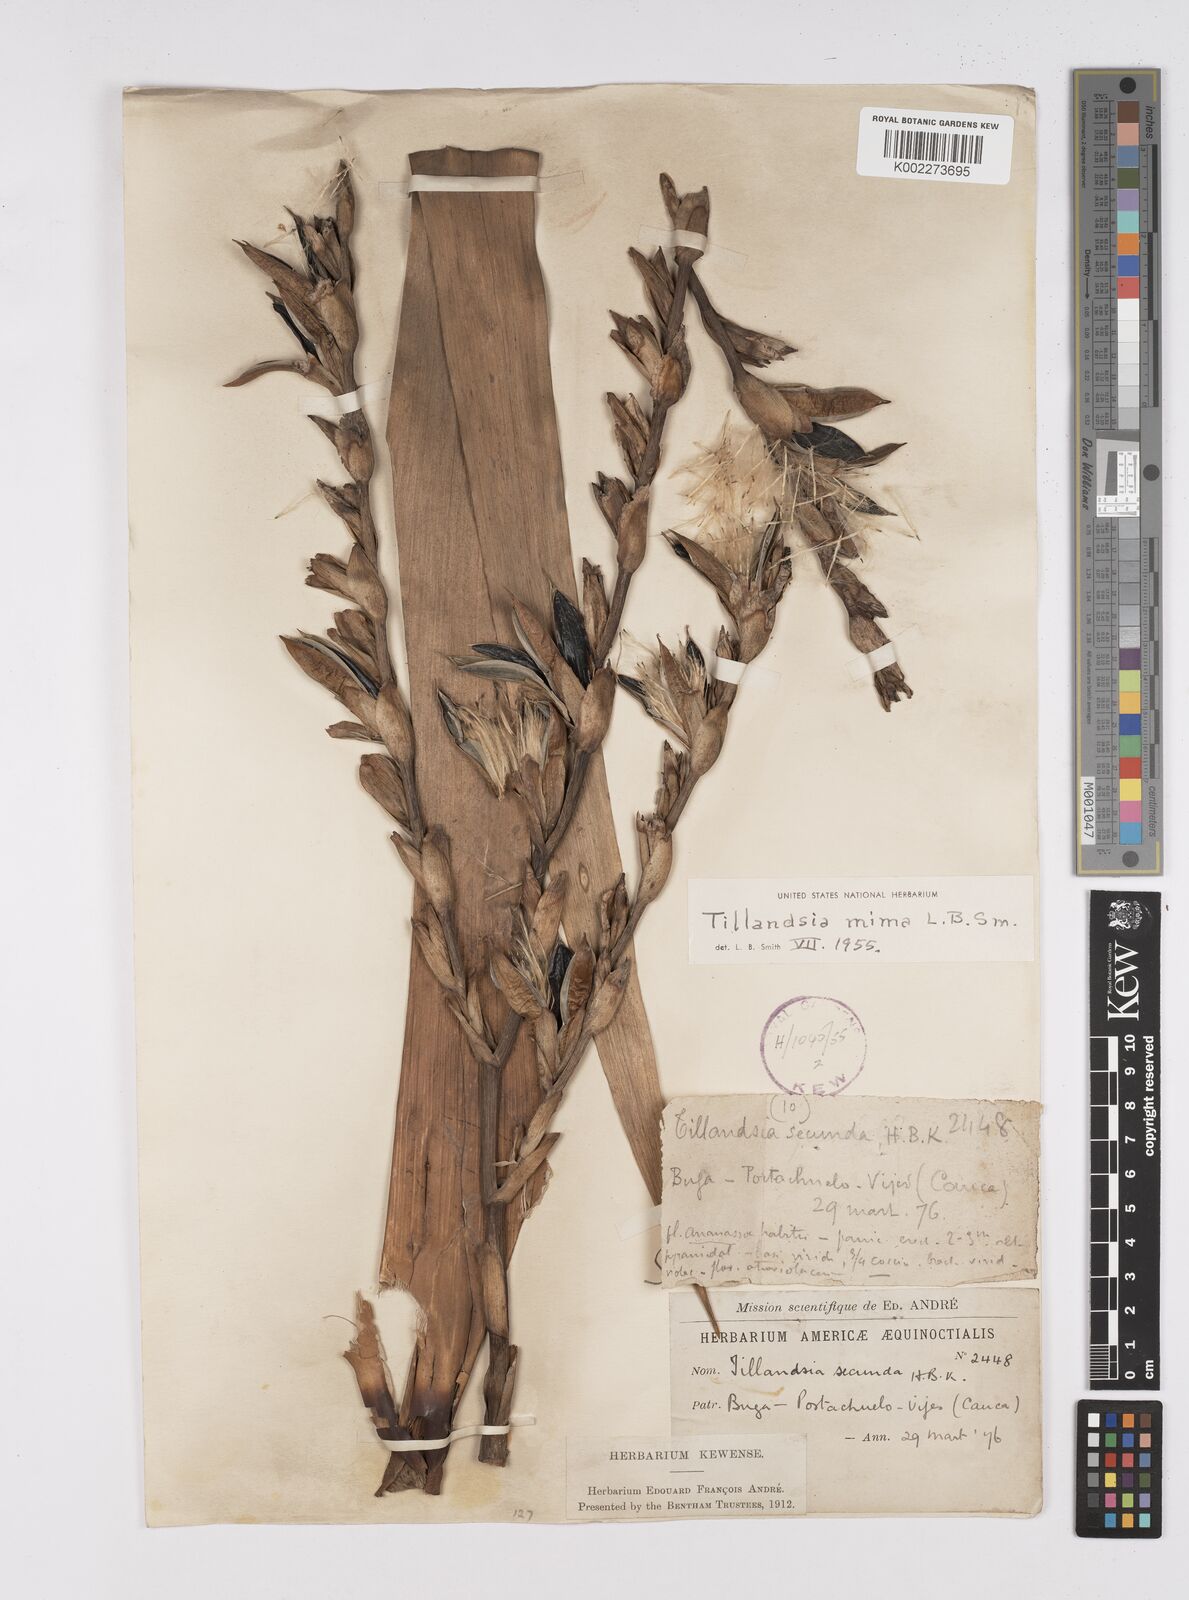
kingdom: Plantae
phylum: Tracheophyta
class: Liliopsida
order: Poales
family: Bromeliaceae
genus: Tillandsia
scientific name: Tillandsia mima
